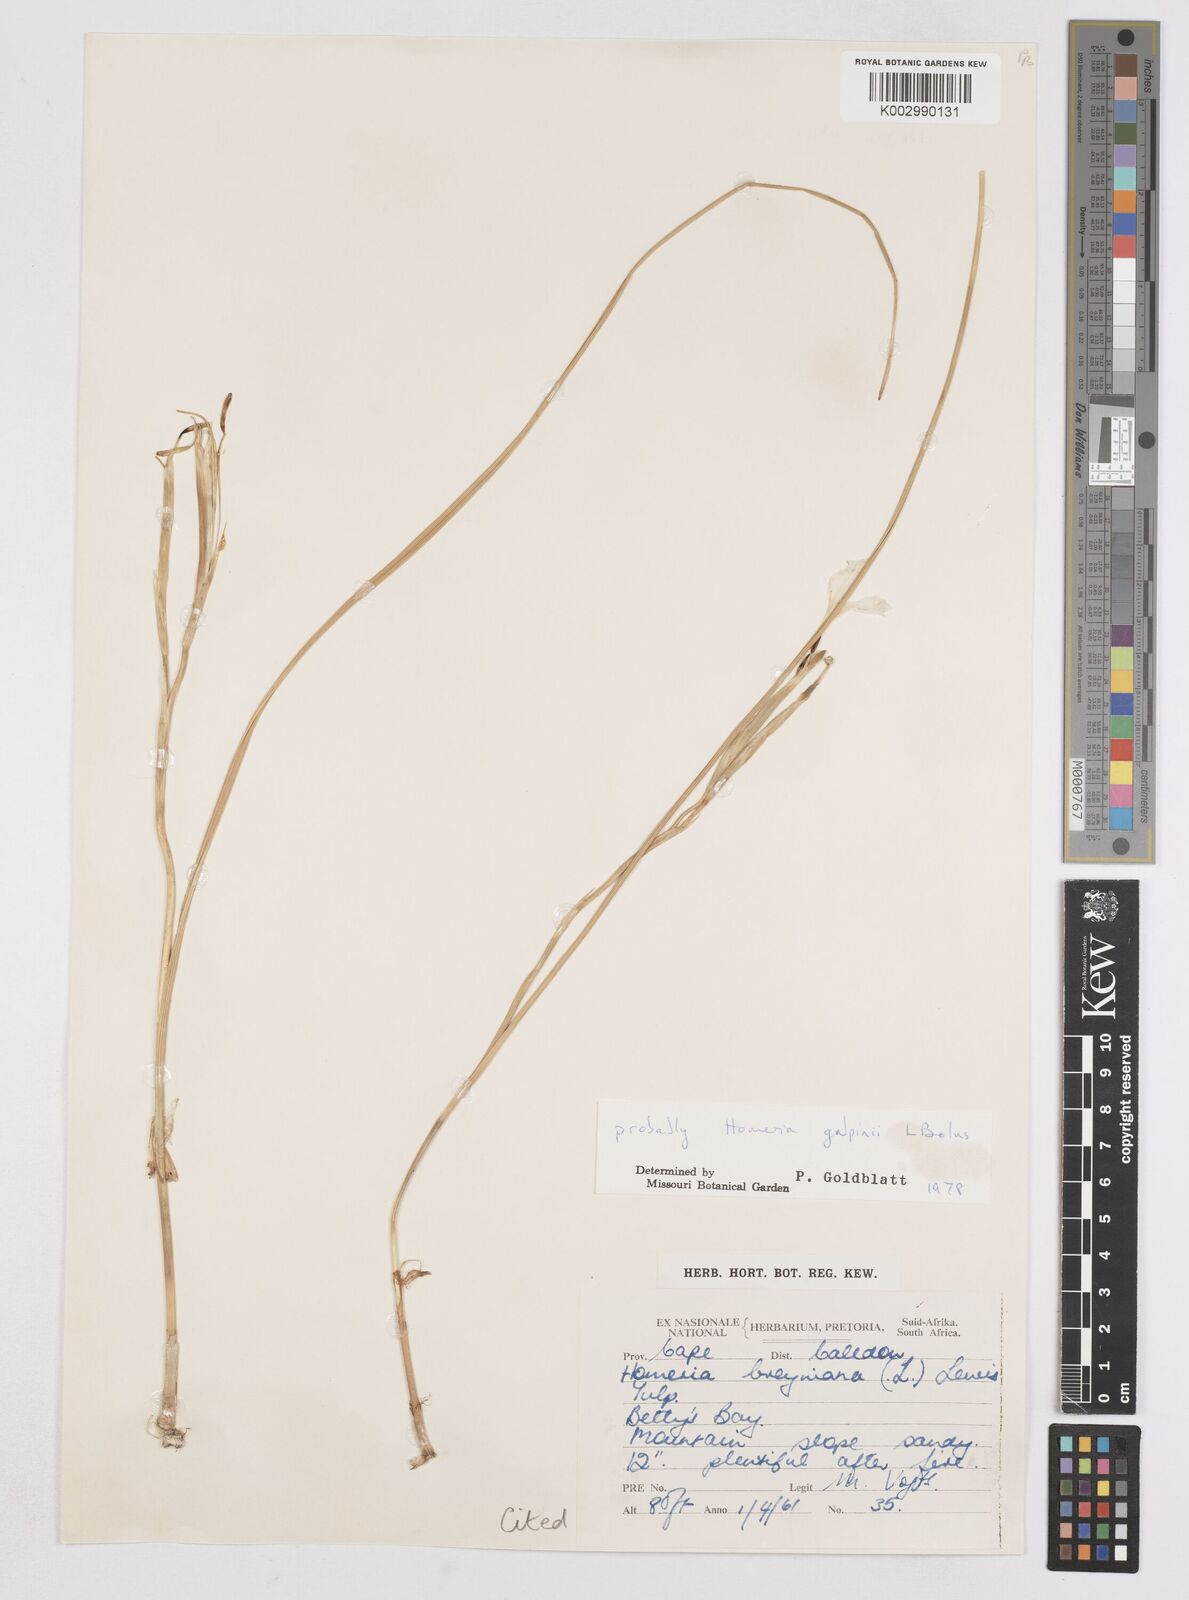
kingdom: Plantae
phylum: Tracheophyta
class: Liliopsida
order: Asparagales
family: Iridaceae
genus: Moraea
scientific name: Moraea
